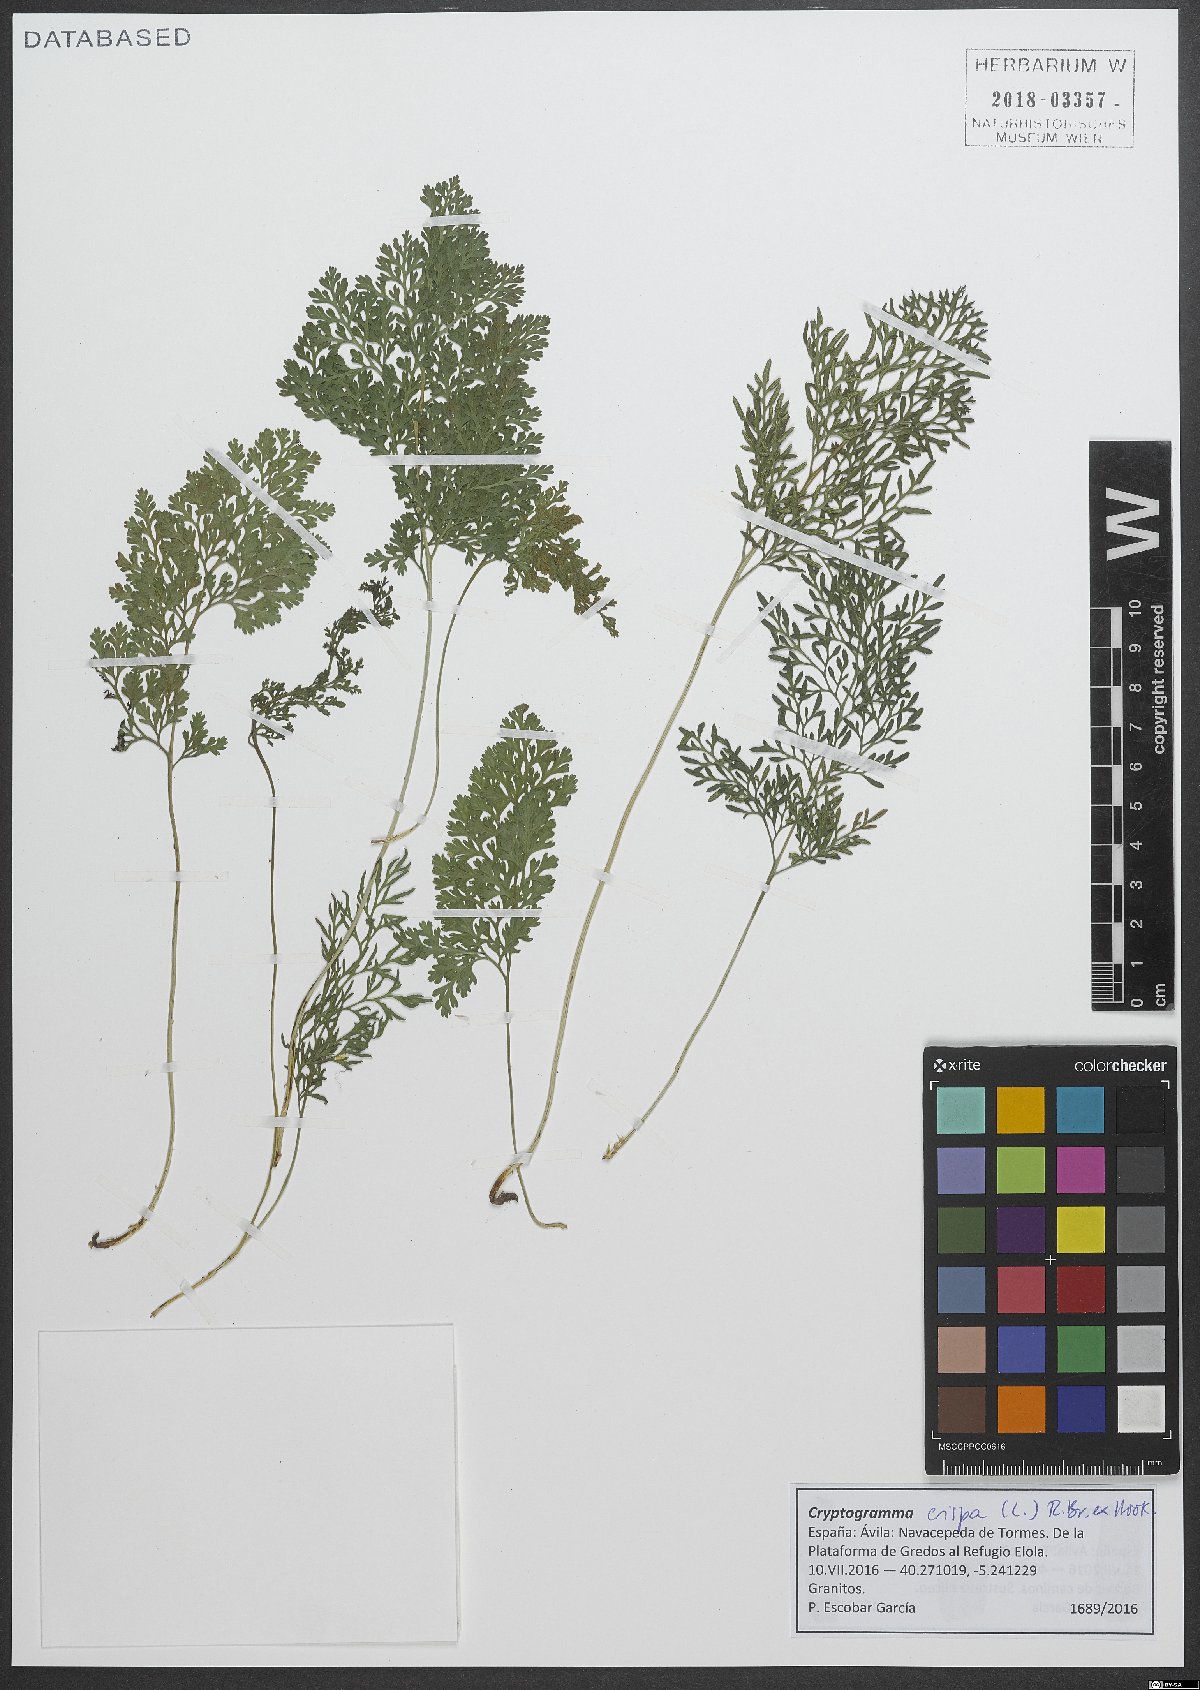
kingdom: Plantae
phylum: Tracheophyta
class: Polypodiopsida
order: Polypodiales
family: Pteridaceae
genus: Cryptogramma
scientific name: Cryptogramma crispa
